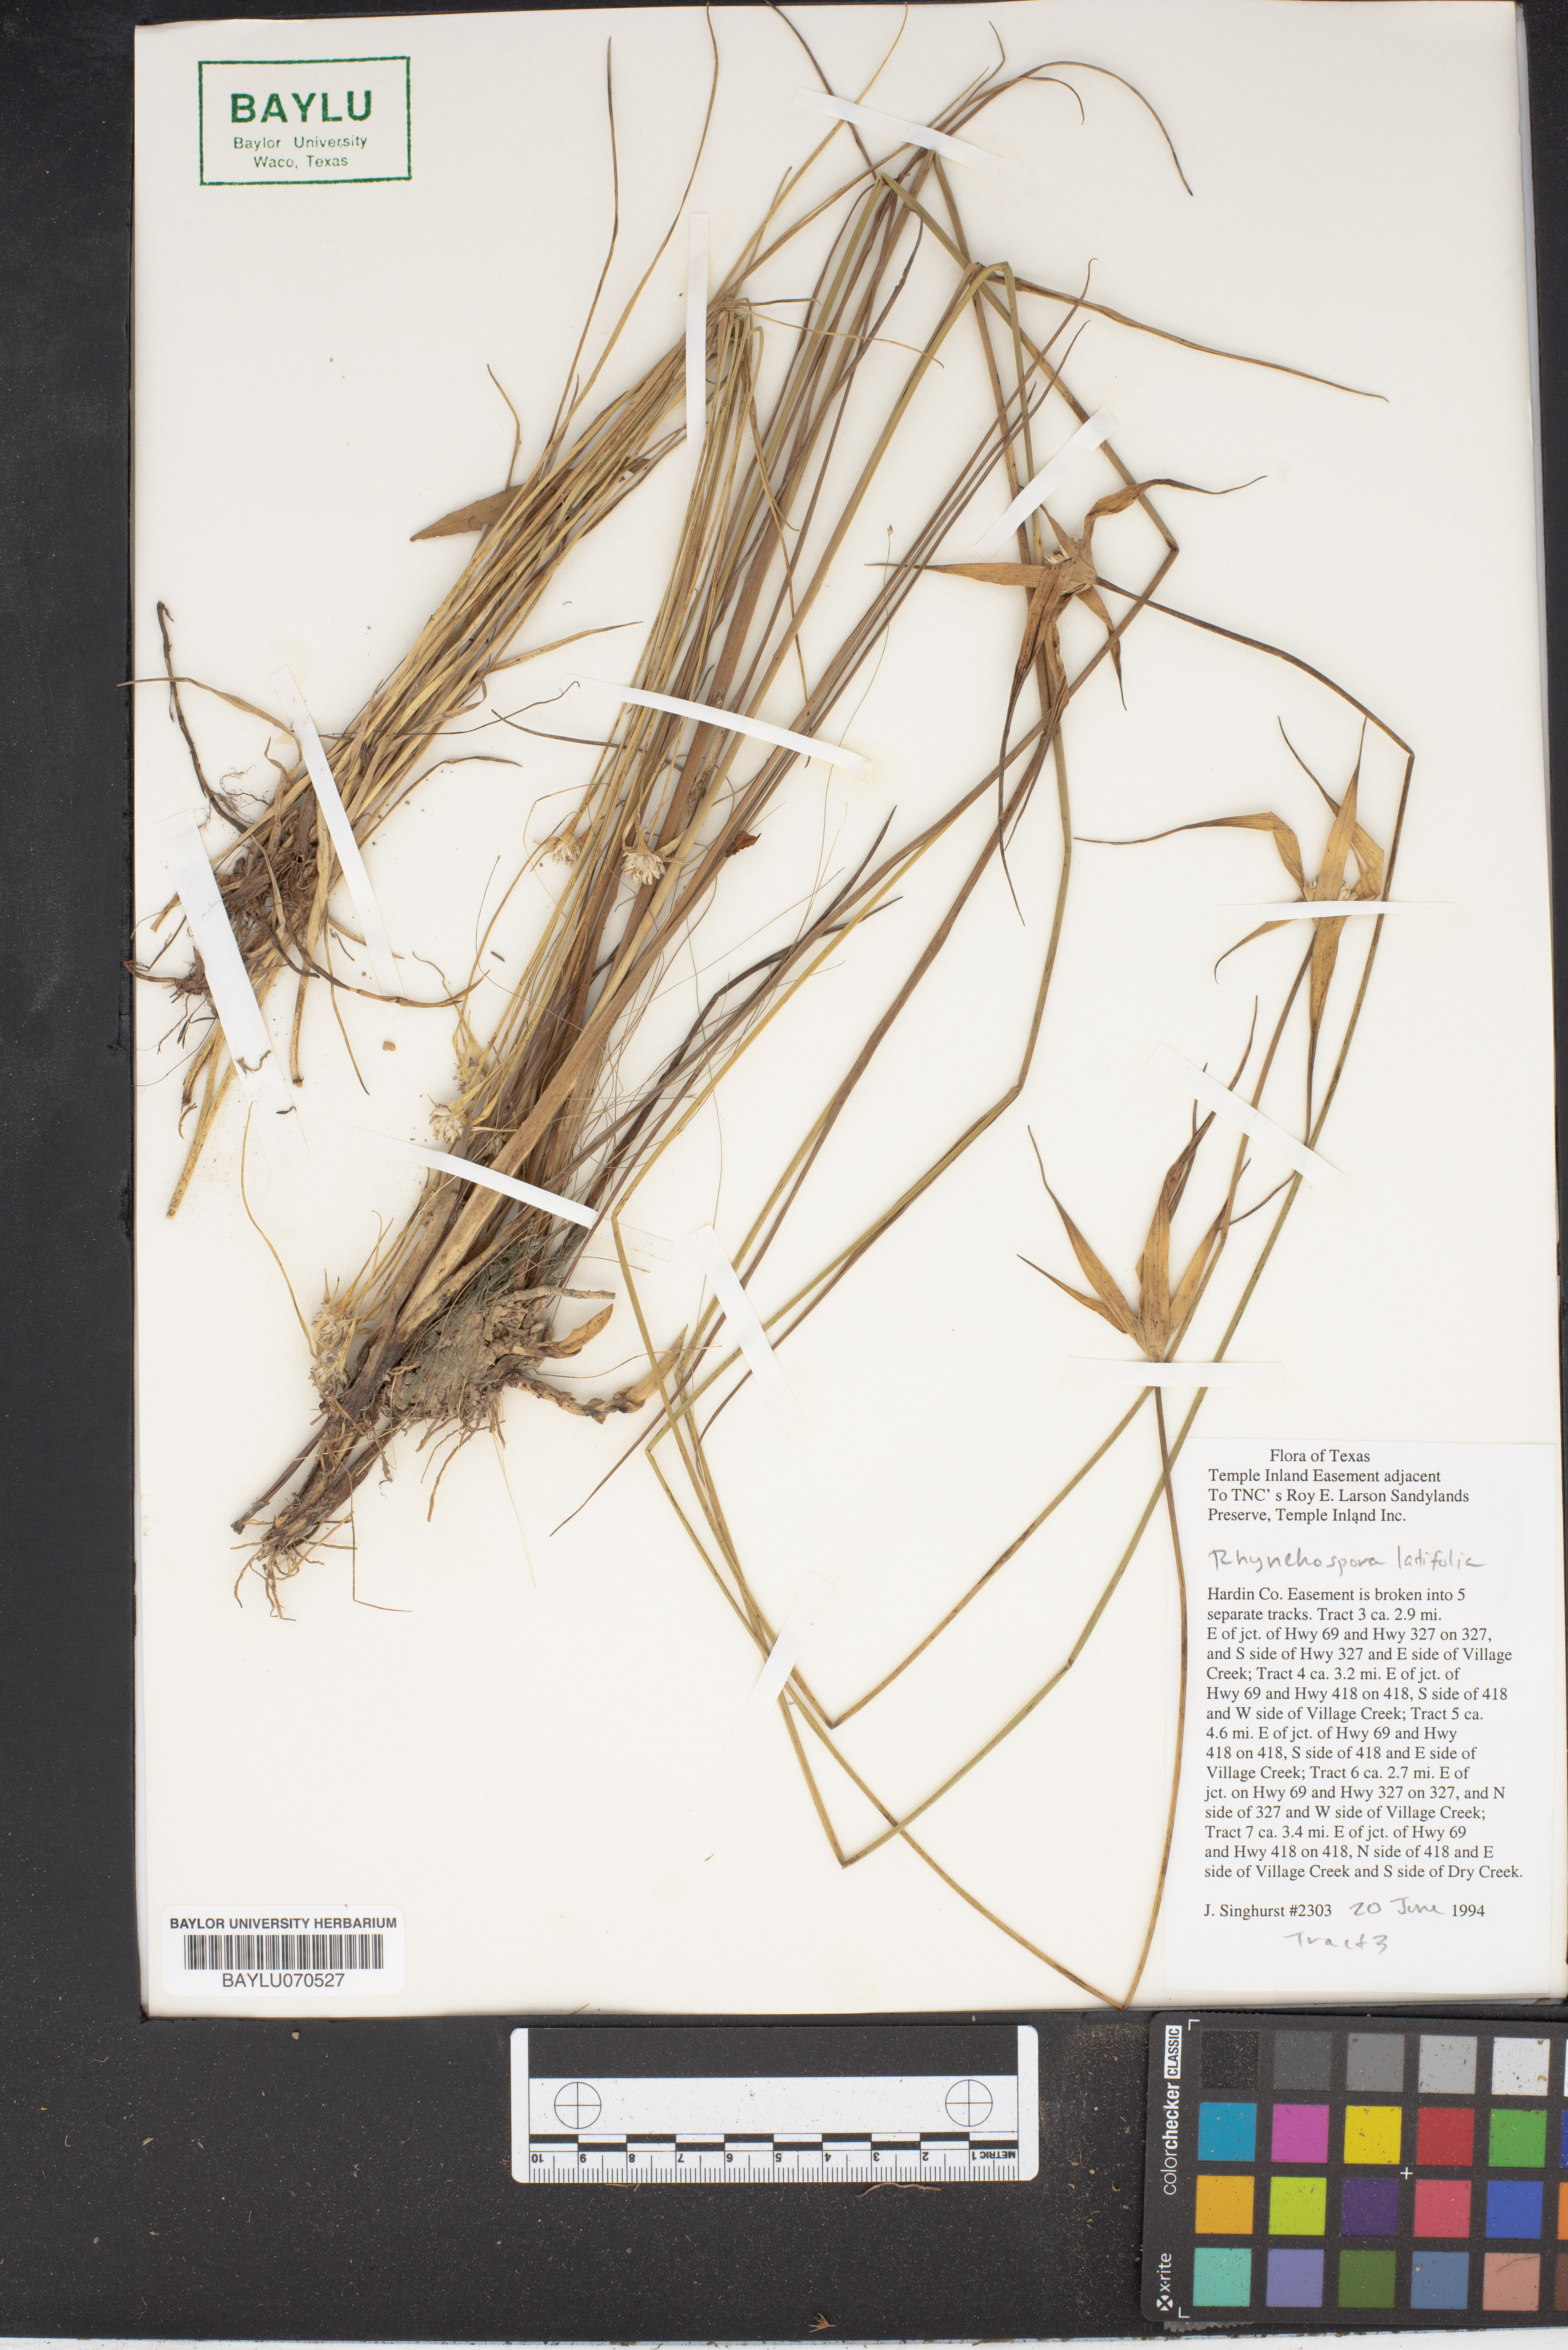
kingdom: Plantae
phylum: Tracheophyta
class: Liliopsida
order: Poales
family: Cyperaceae
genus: Rhynchospora
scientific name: Rhynchospora latifolia
